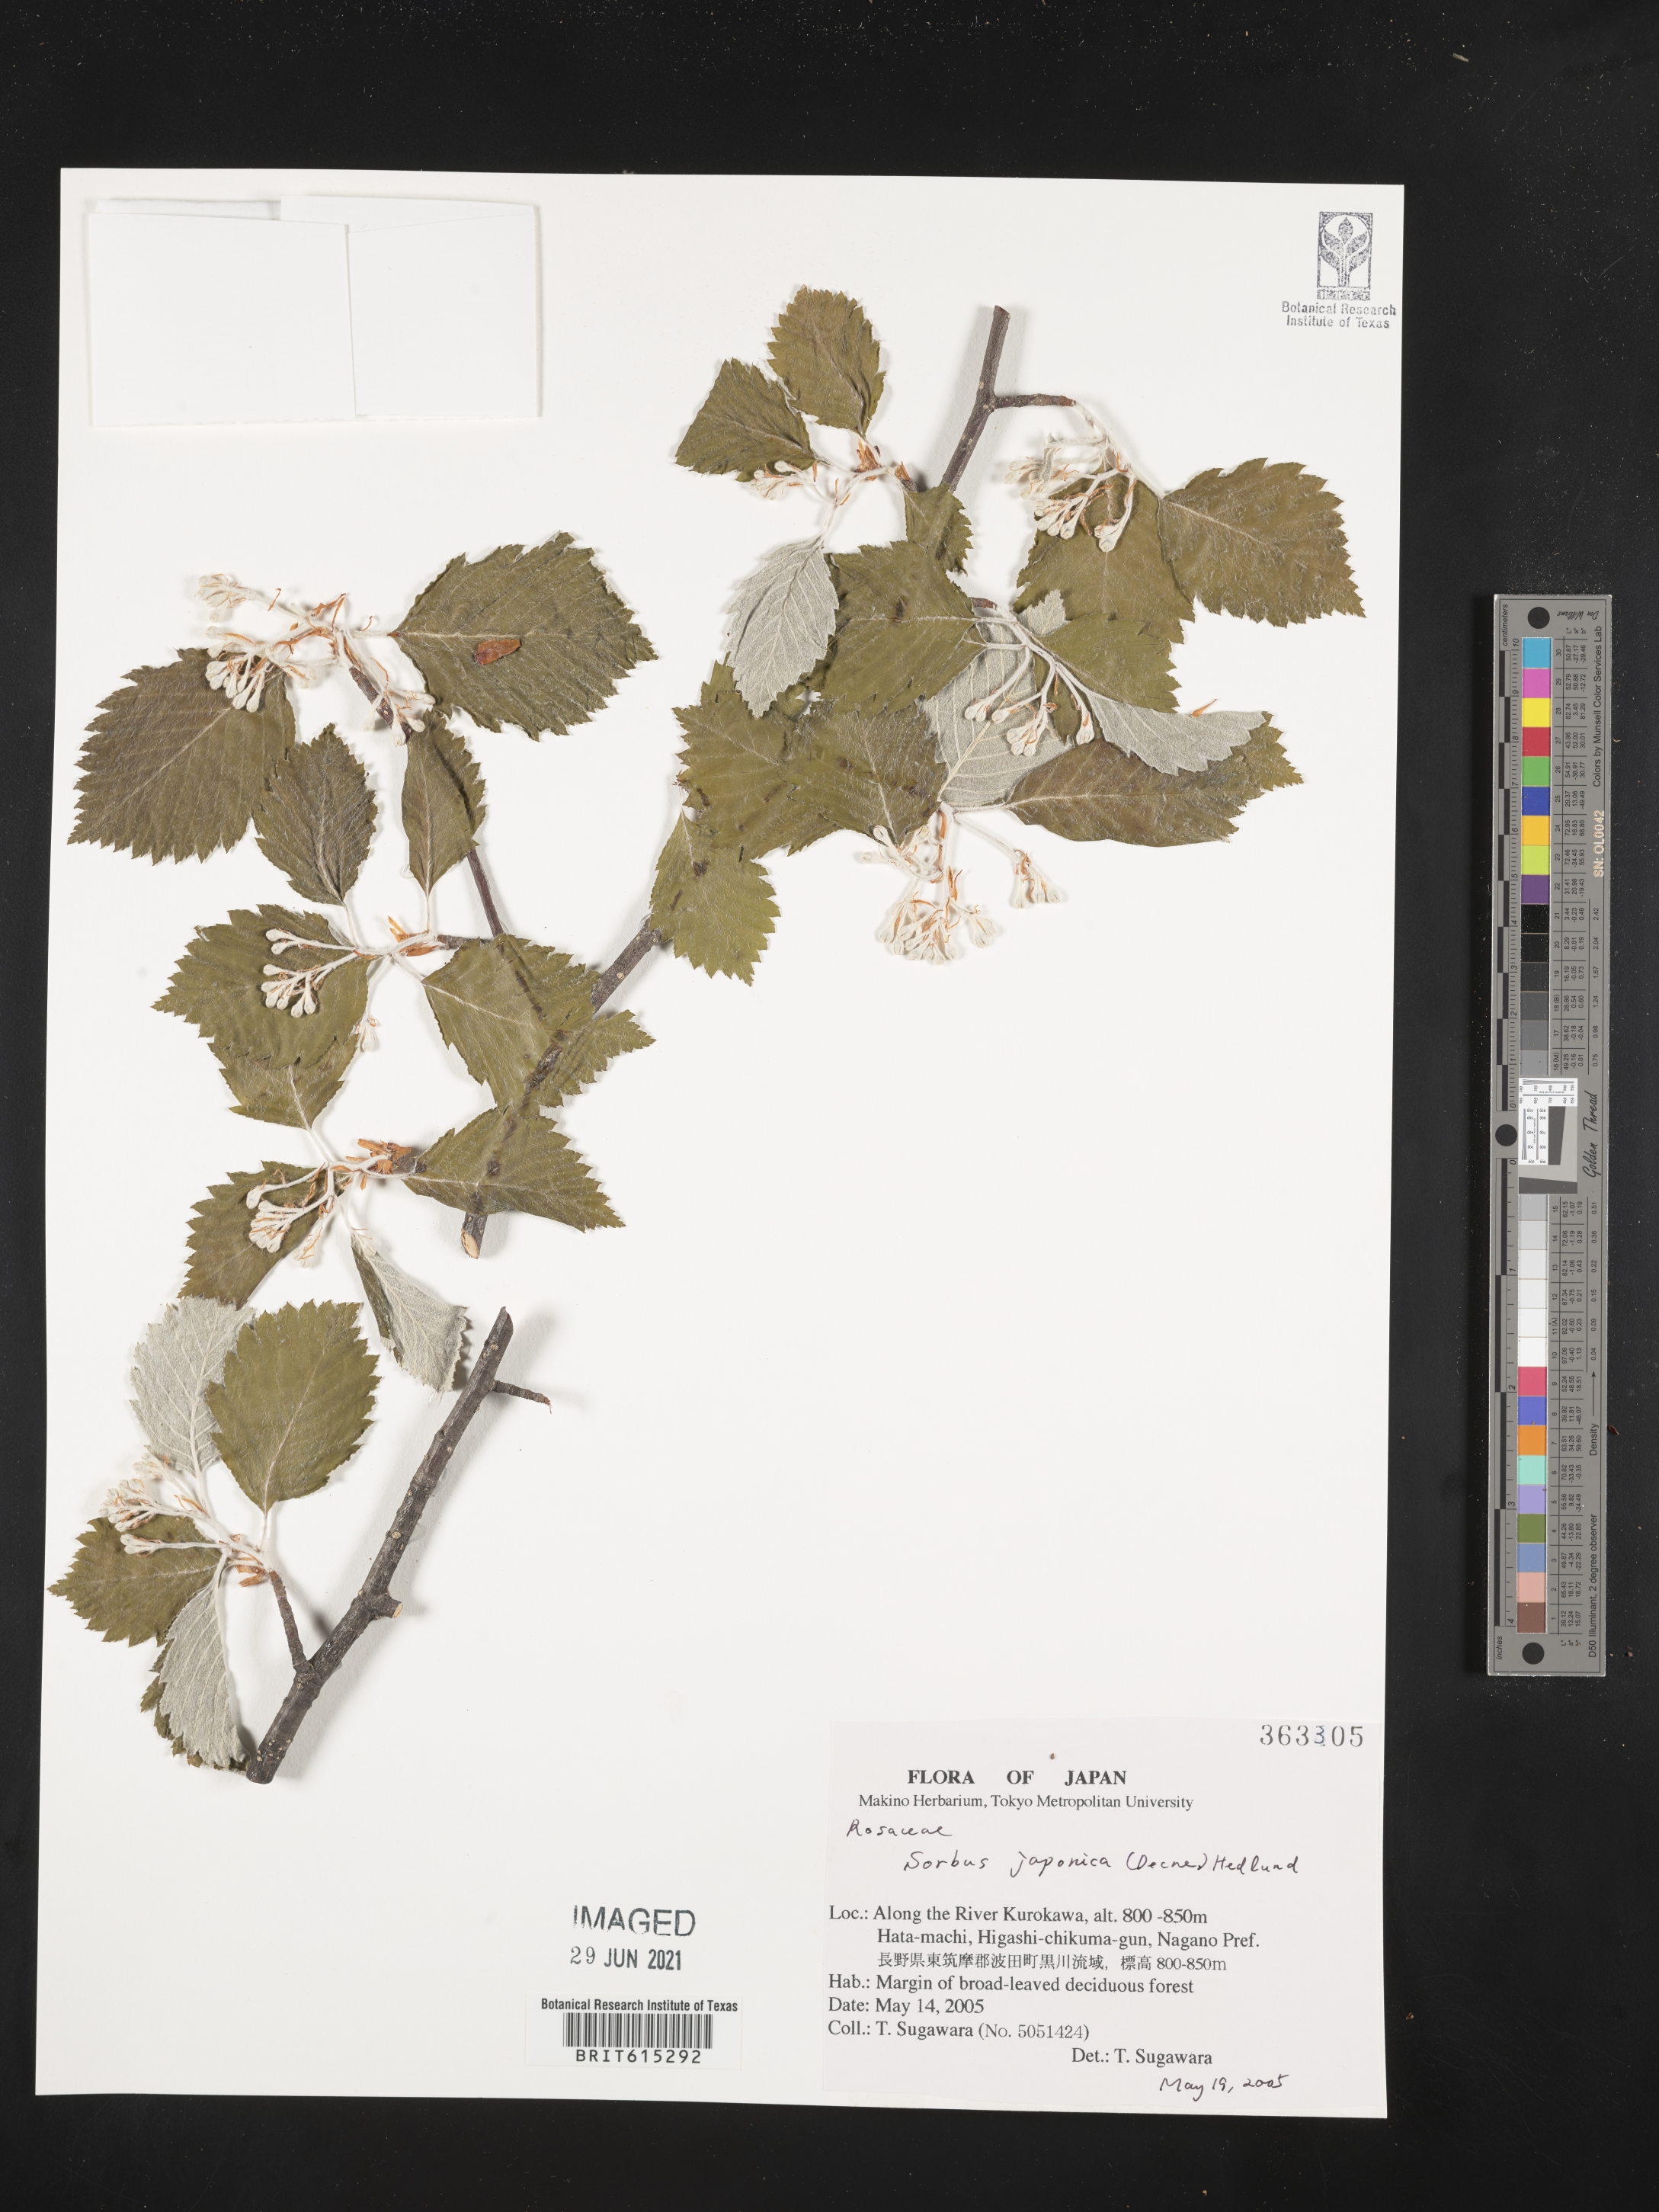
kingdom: Plantae
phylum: Tracheophyta
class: Magnoliopsida
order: Rosales
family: Rosaceae
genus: Sorbus
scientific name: Sorbus japonica
